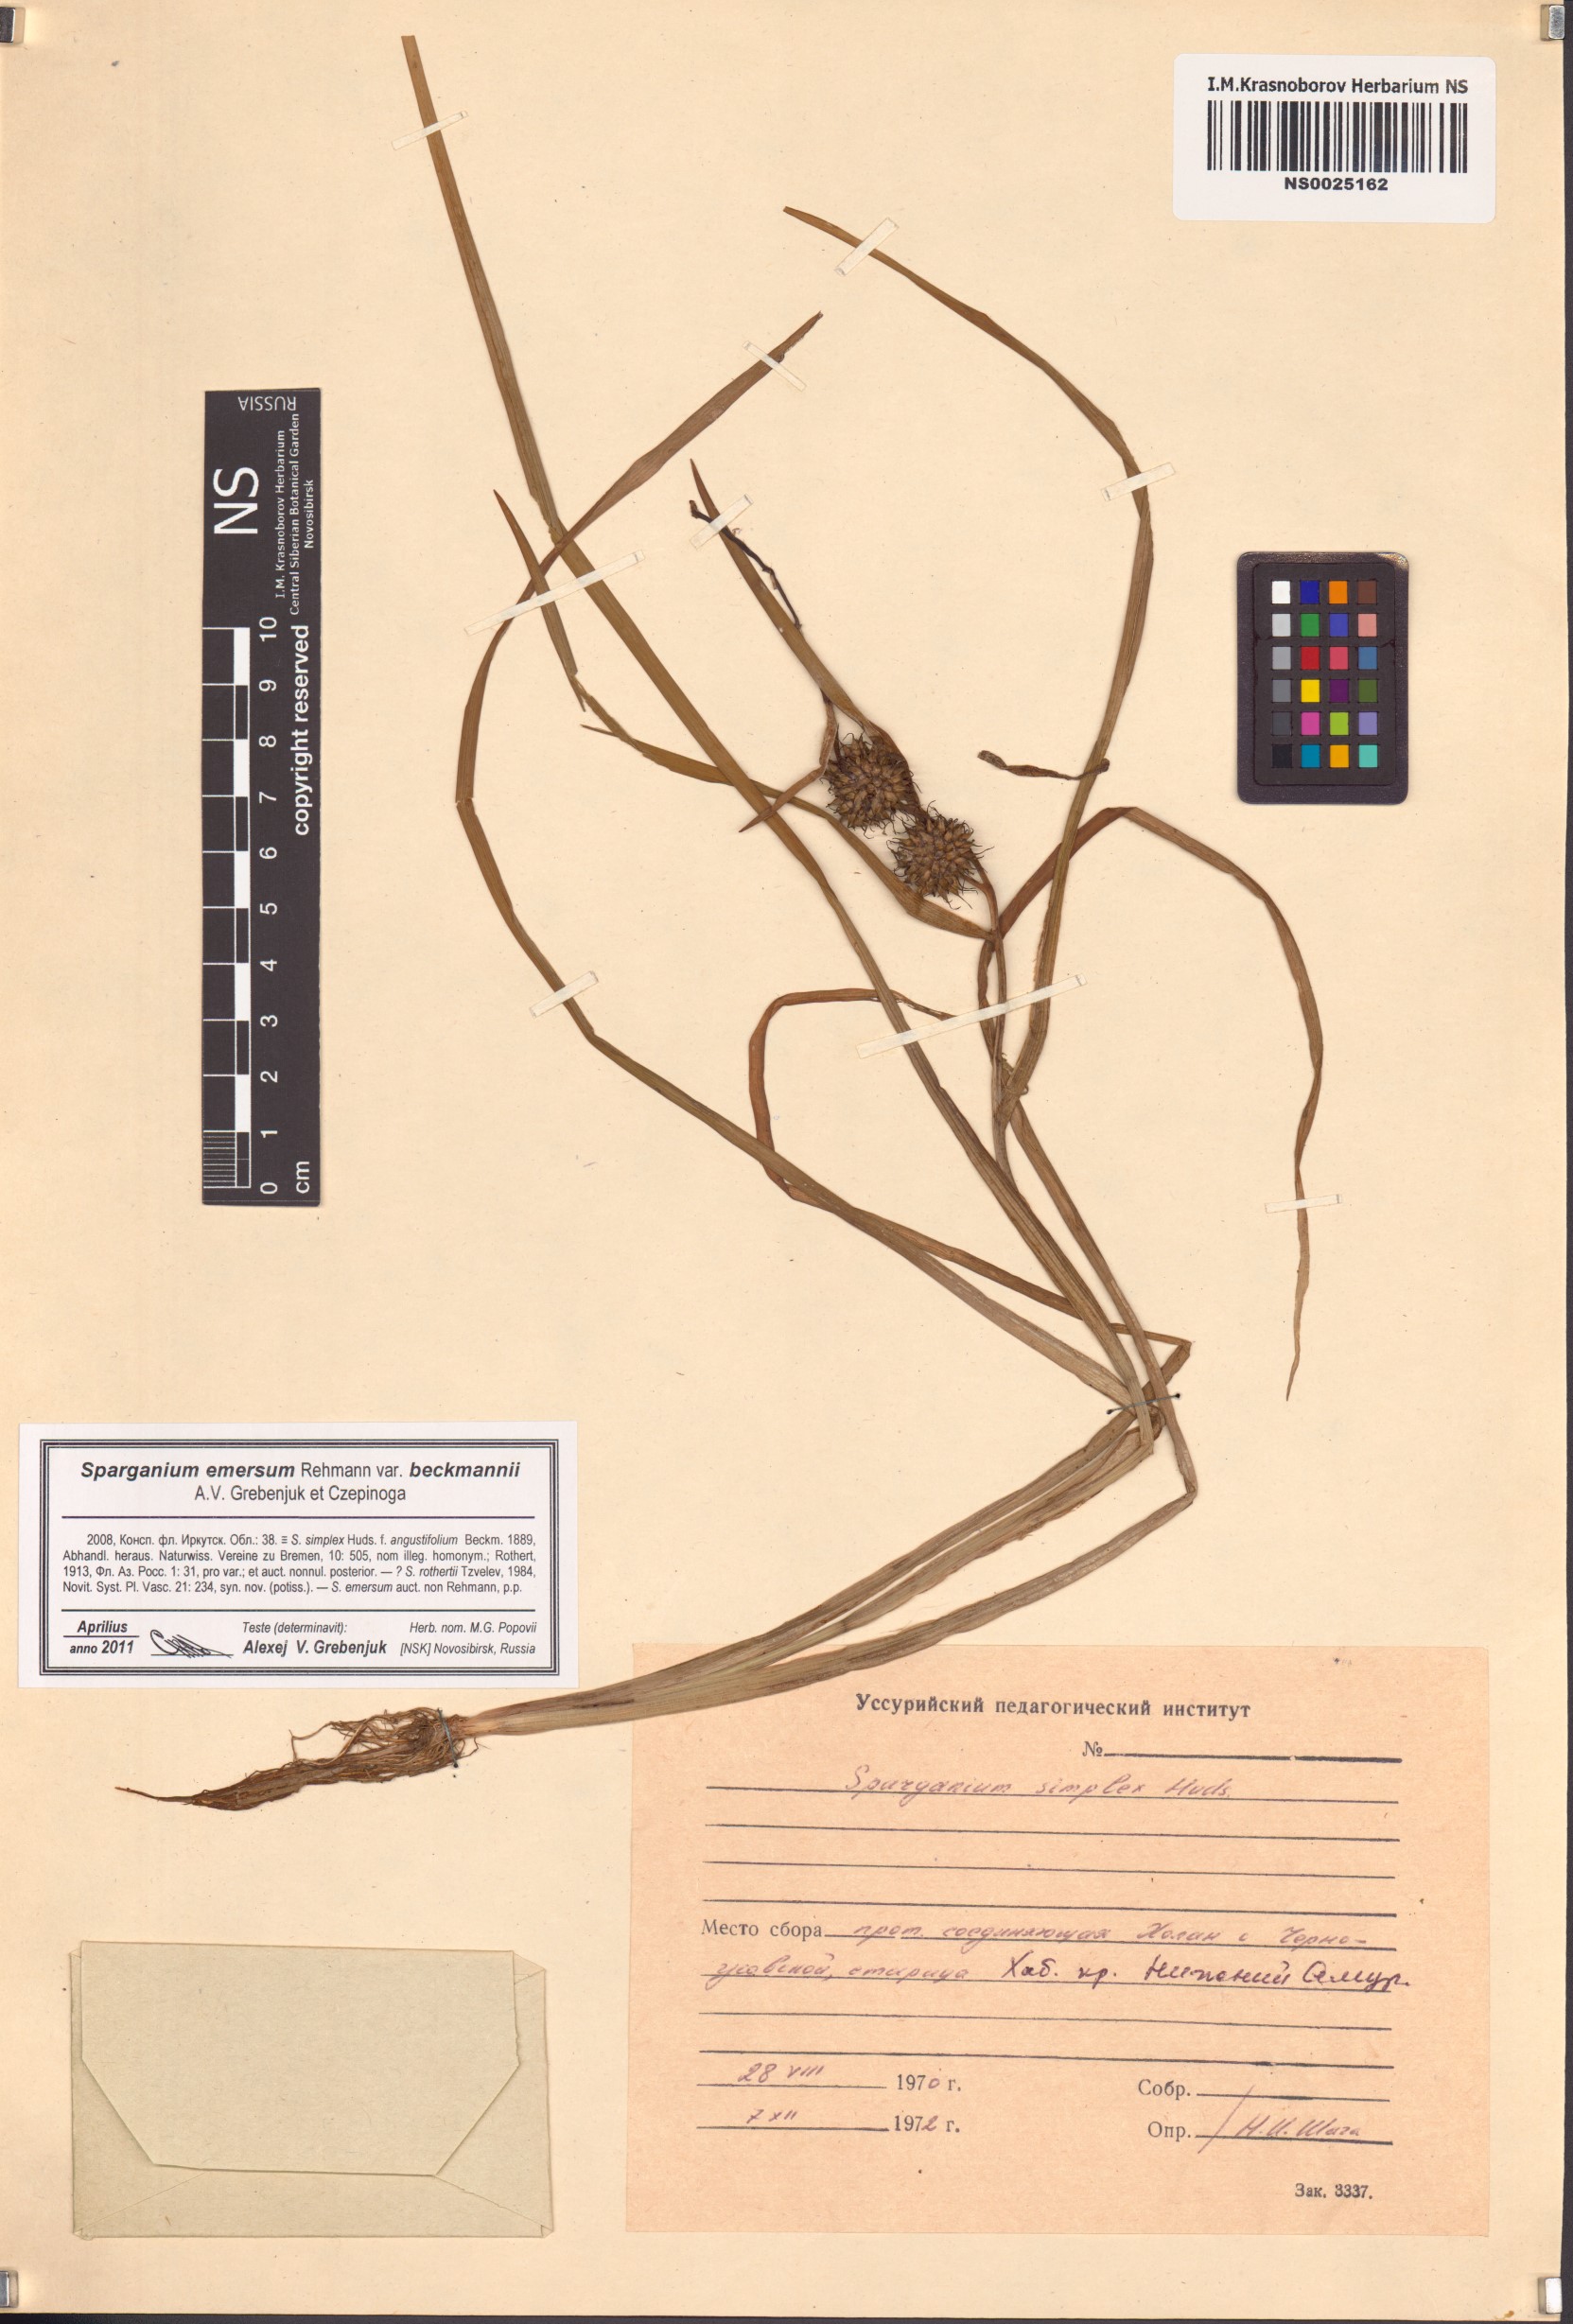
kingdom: Plantae
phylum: Tracheophyta
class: Liliopsida
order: Poales
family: Typhaceae
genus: Sparganium
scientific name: Sparganium emersum
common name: Unbranched bur-reed
